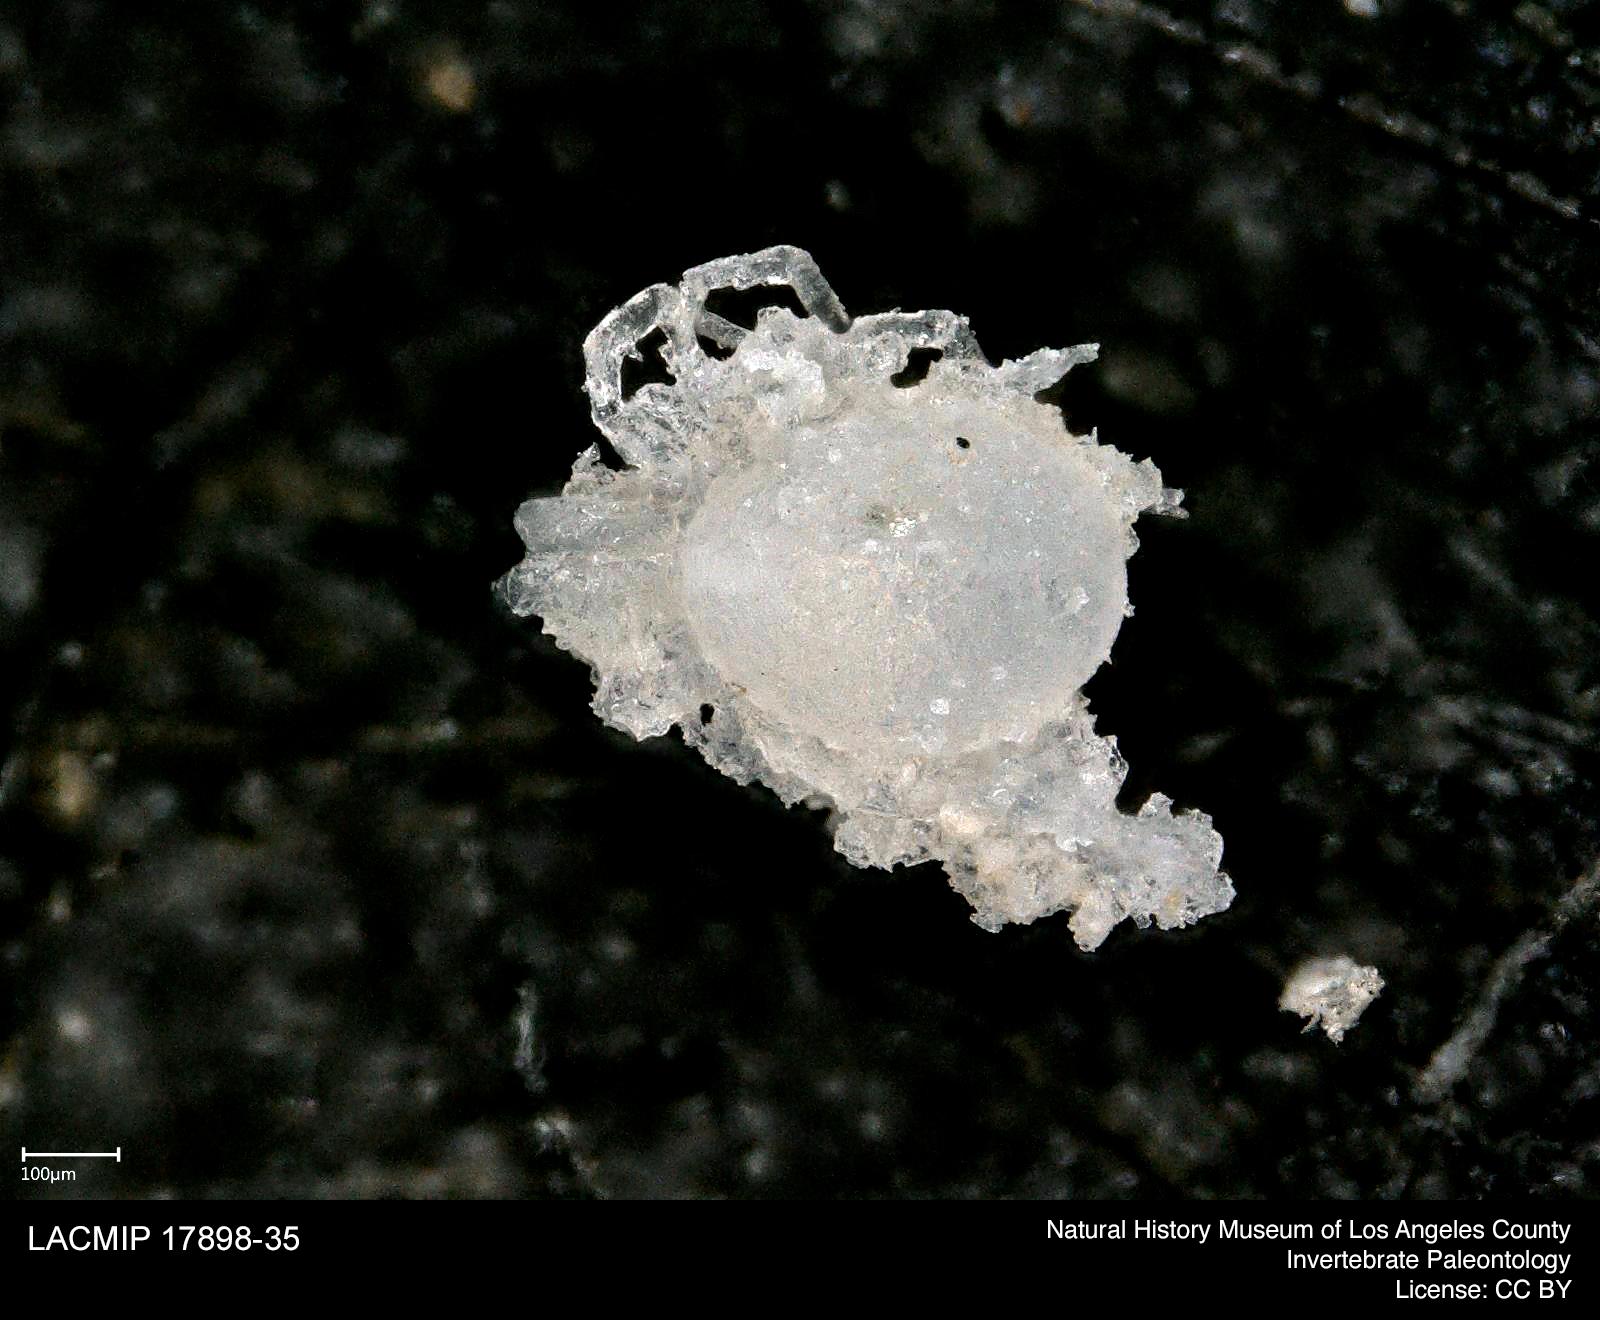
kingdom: Animalia
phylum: Arthropoda
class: Arachnida
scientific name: Arachnida
